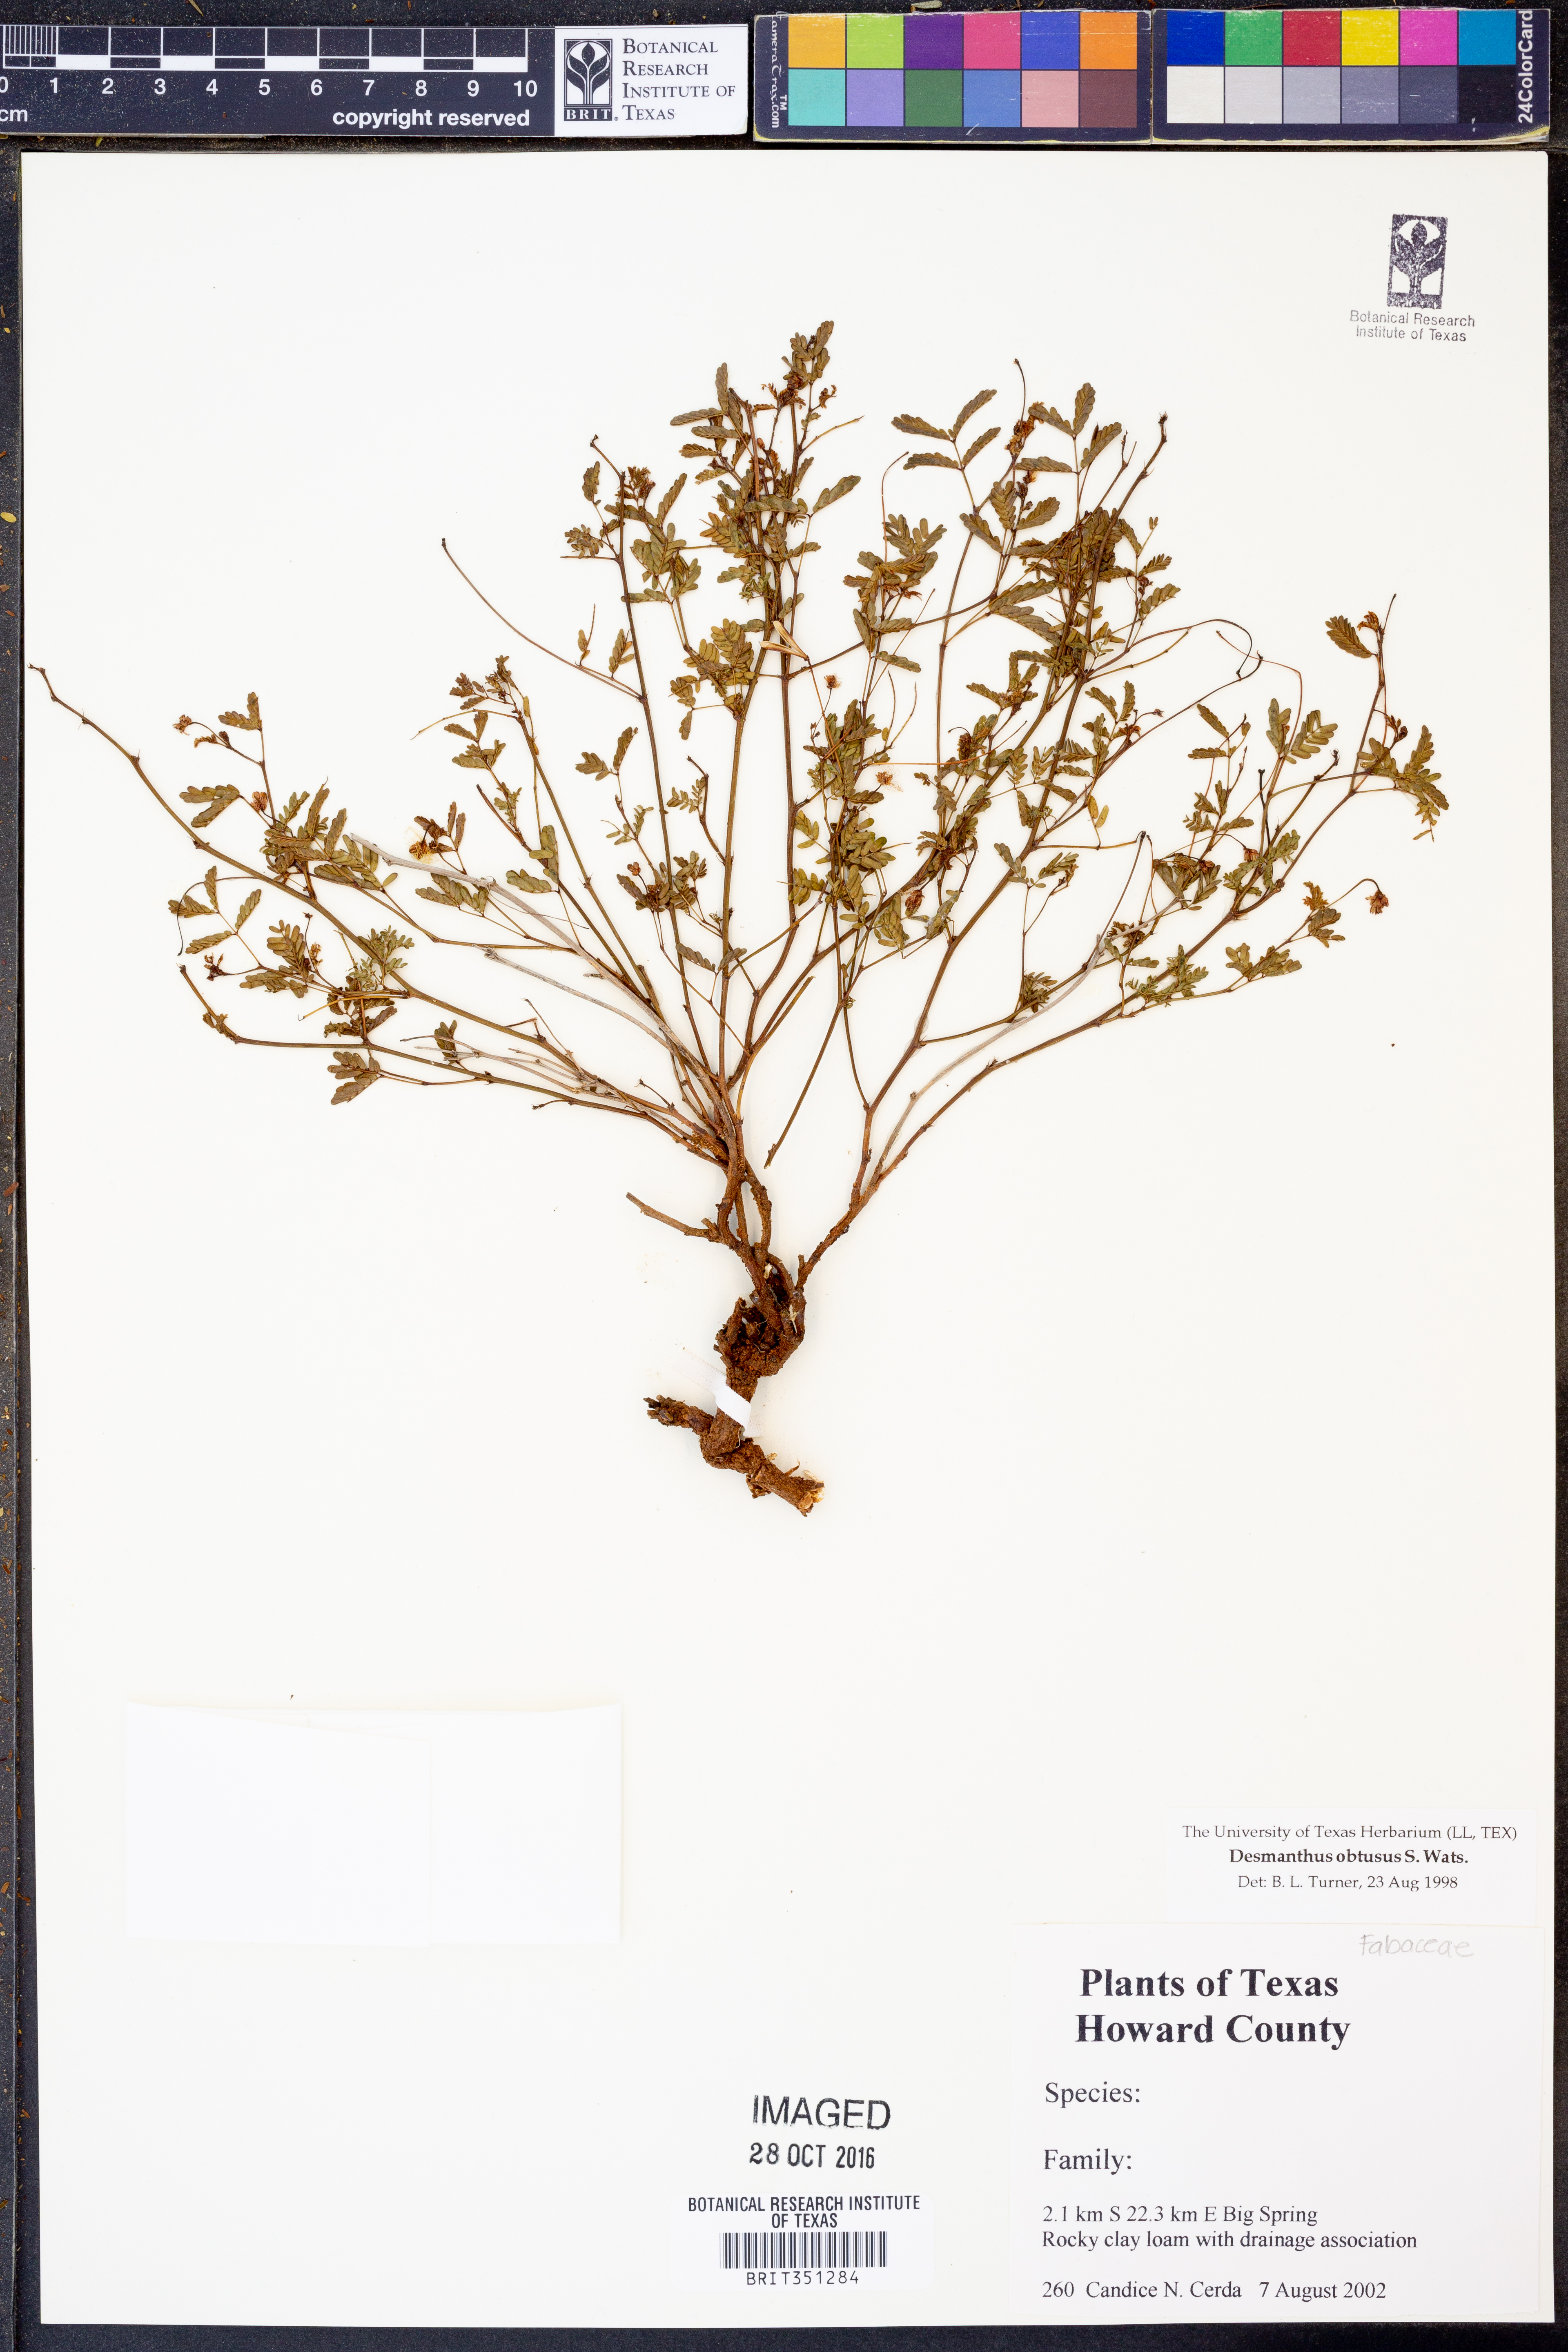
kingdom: Plantae
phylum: Tracheophyta
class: Magnoliopsida
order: Fabales
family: Fabaceae
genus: Desmanthus
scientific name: Desmanthus obtusus
